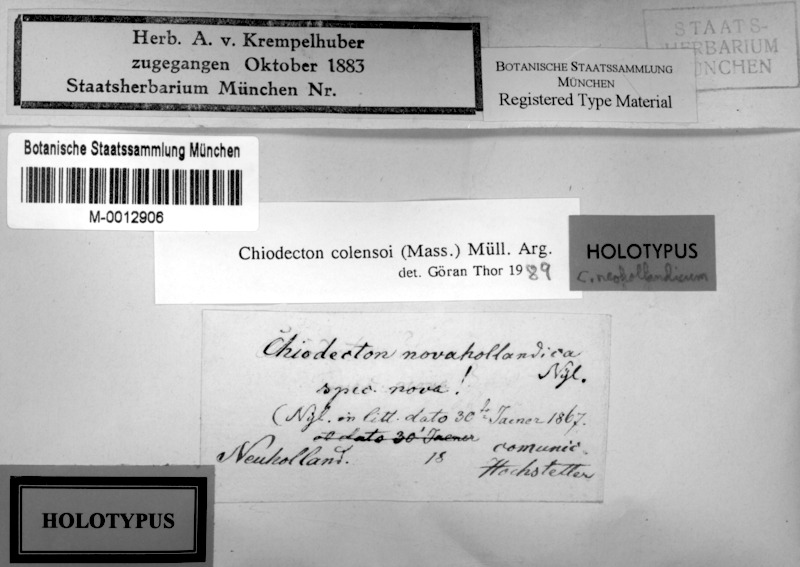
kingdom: Fungi
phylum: Ascomycota
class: Arthoniomycetes
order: Arthoniales
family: Roccellaceae
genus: Chiodecton
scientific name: Chiodecton colensoi
